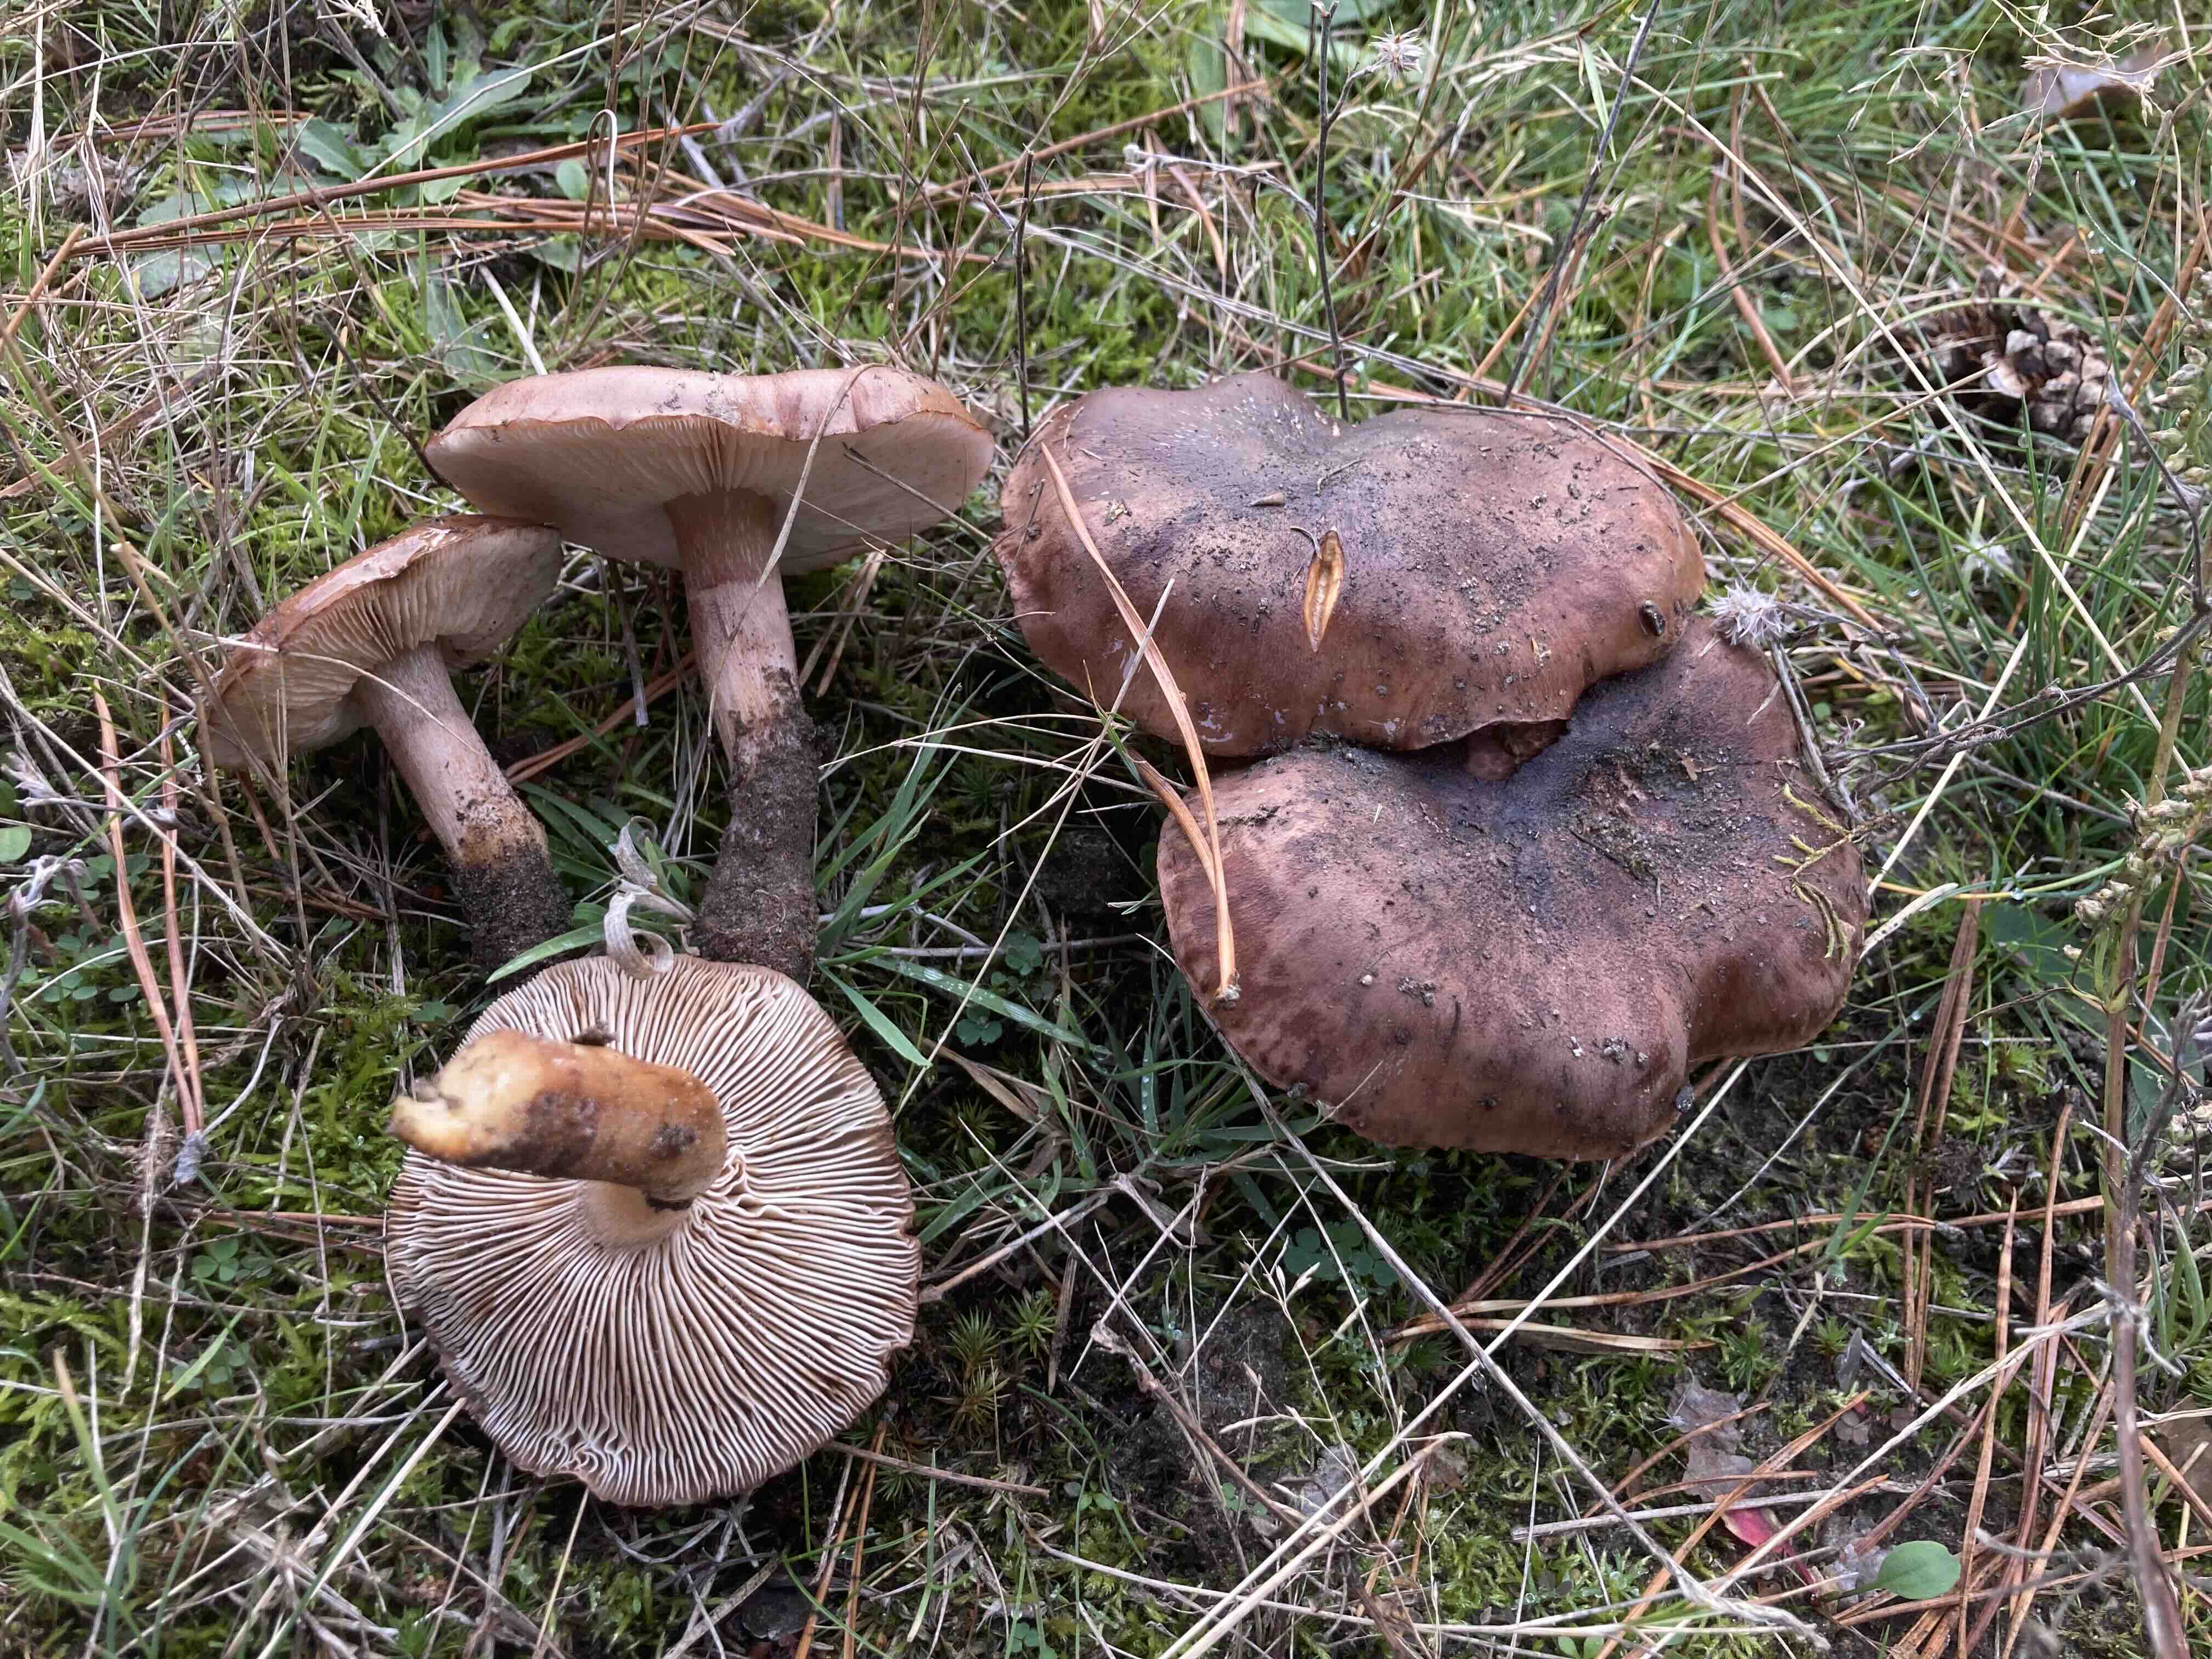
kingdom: Fungi
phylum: Basidiomycota
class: Agaricomycetes
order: Agaricales
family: Tricholomataceae
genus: Tricholoma
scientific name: Tricholoma albobrunneum
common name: kastanie-ridderhat
